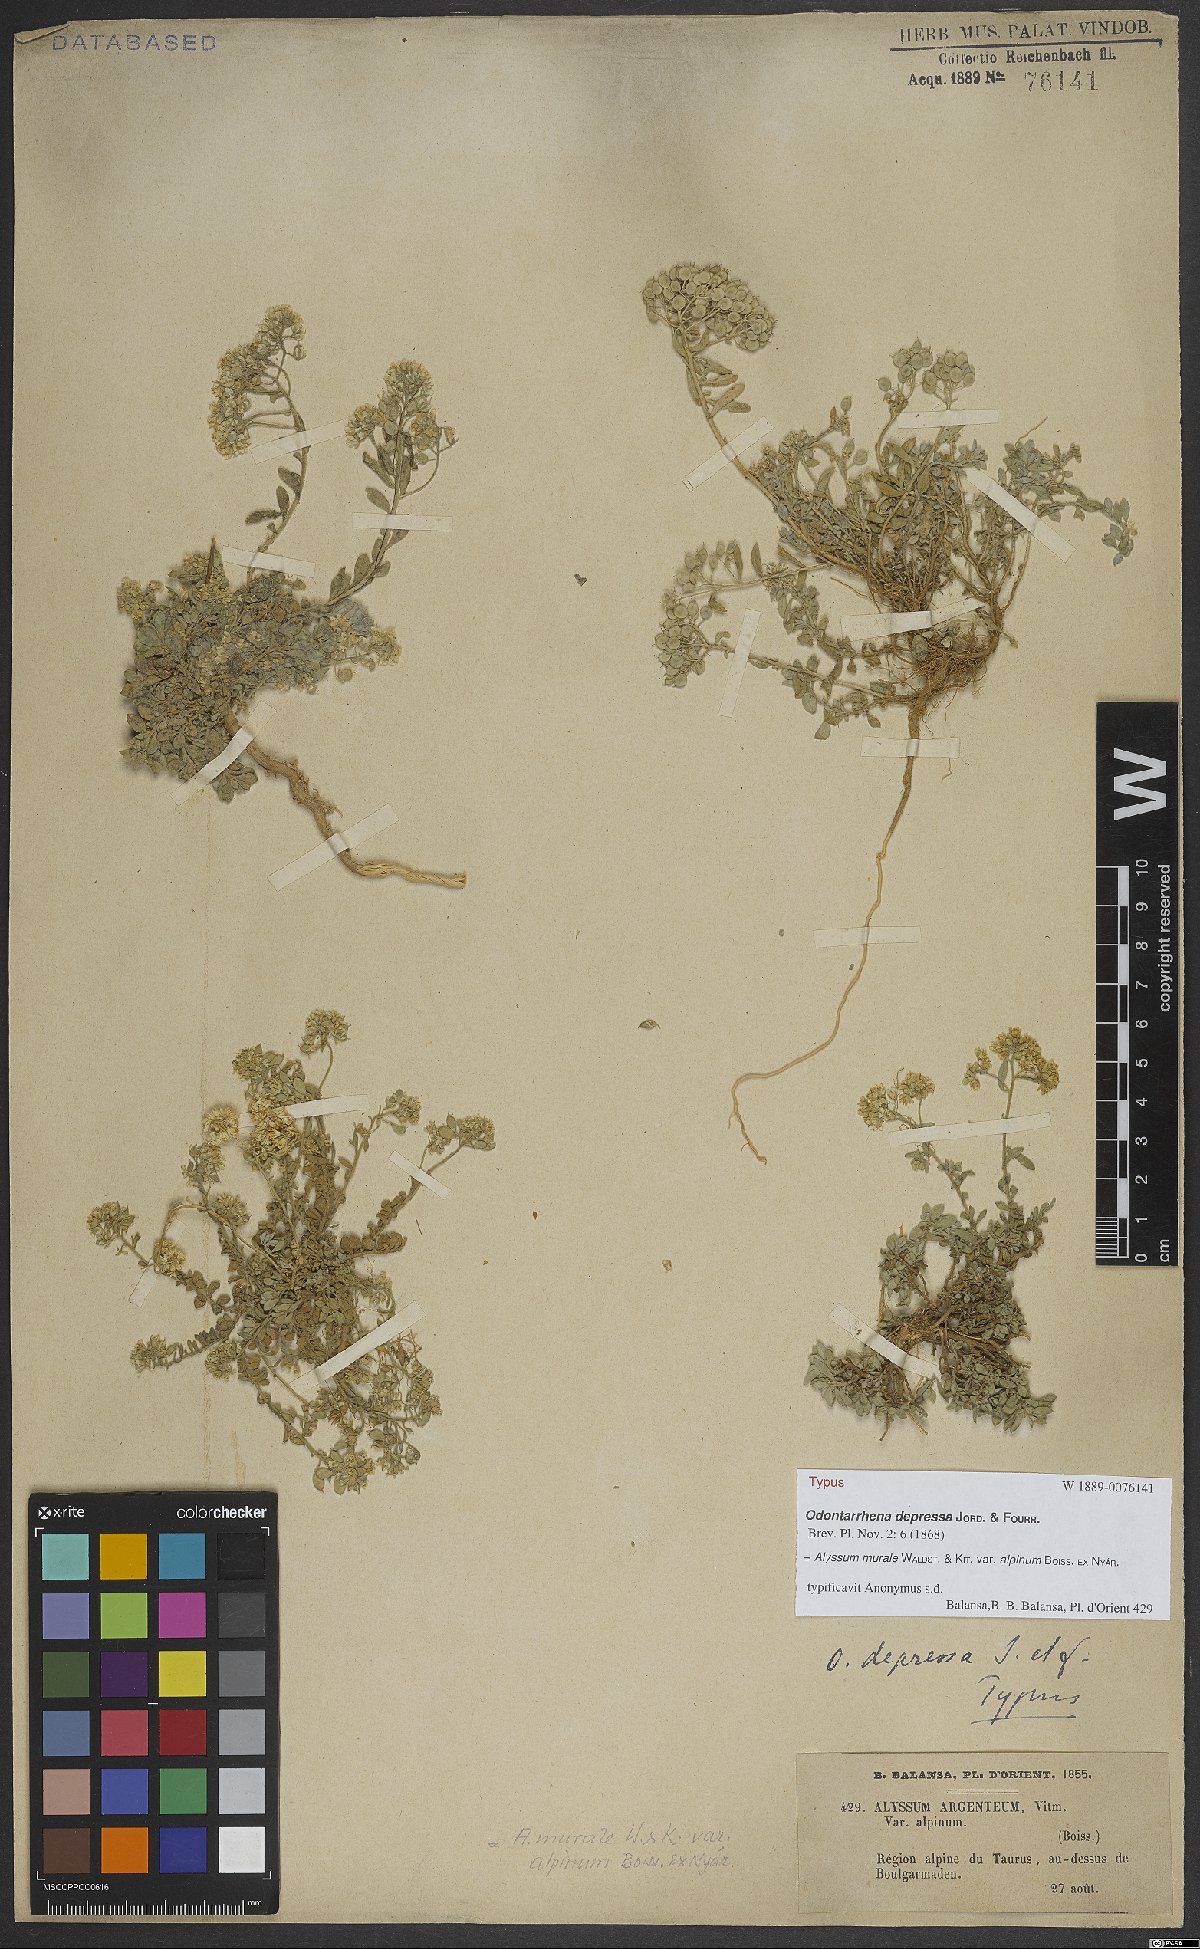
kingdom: Plantae
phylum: Tracheophyta
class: Magnoliopsida
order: Brassicales
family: Brassicaceae
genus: Odontarrhena
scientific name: Odontarrhena muralis
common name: Rock alyssum
